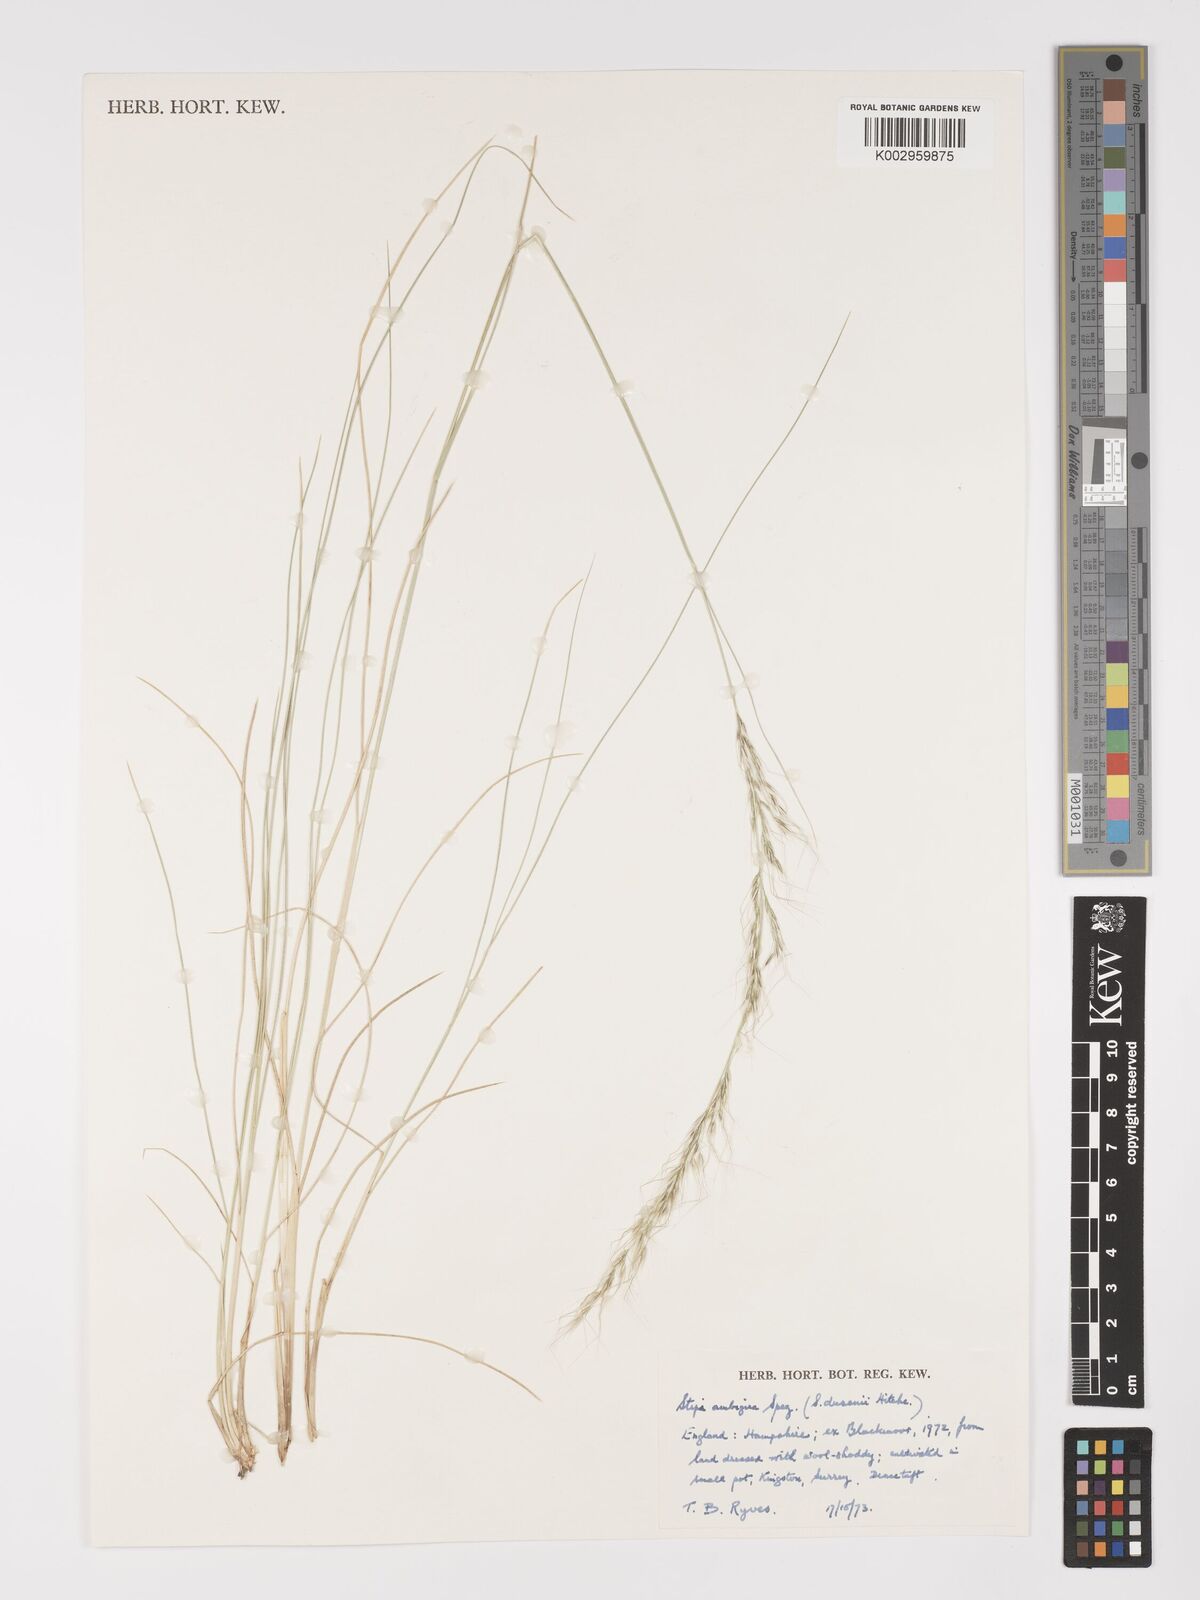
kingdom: Plantae
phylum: Tracheophyta
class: Liliopsida
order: Poales
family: Poaceae
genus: Amelichloa
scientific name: Amelichloa ambigua
